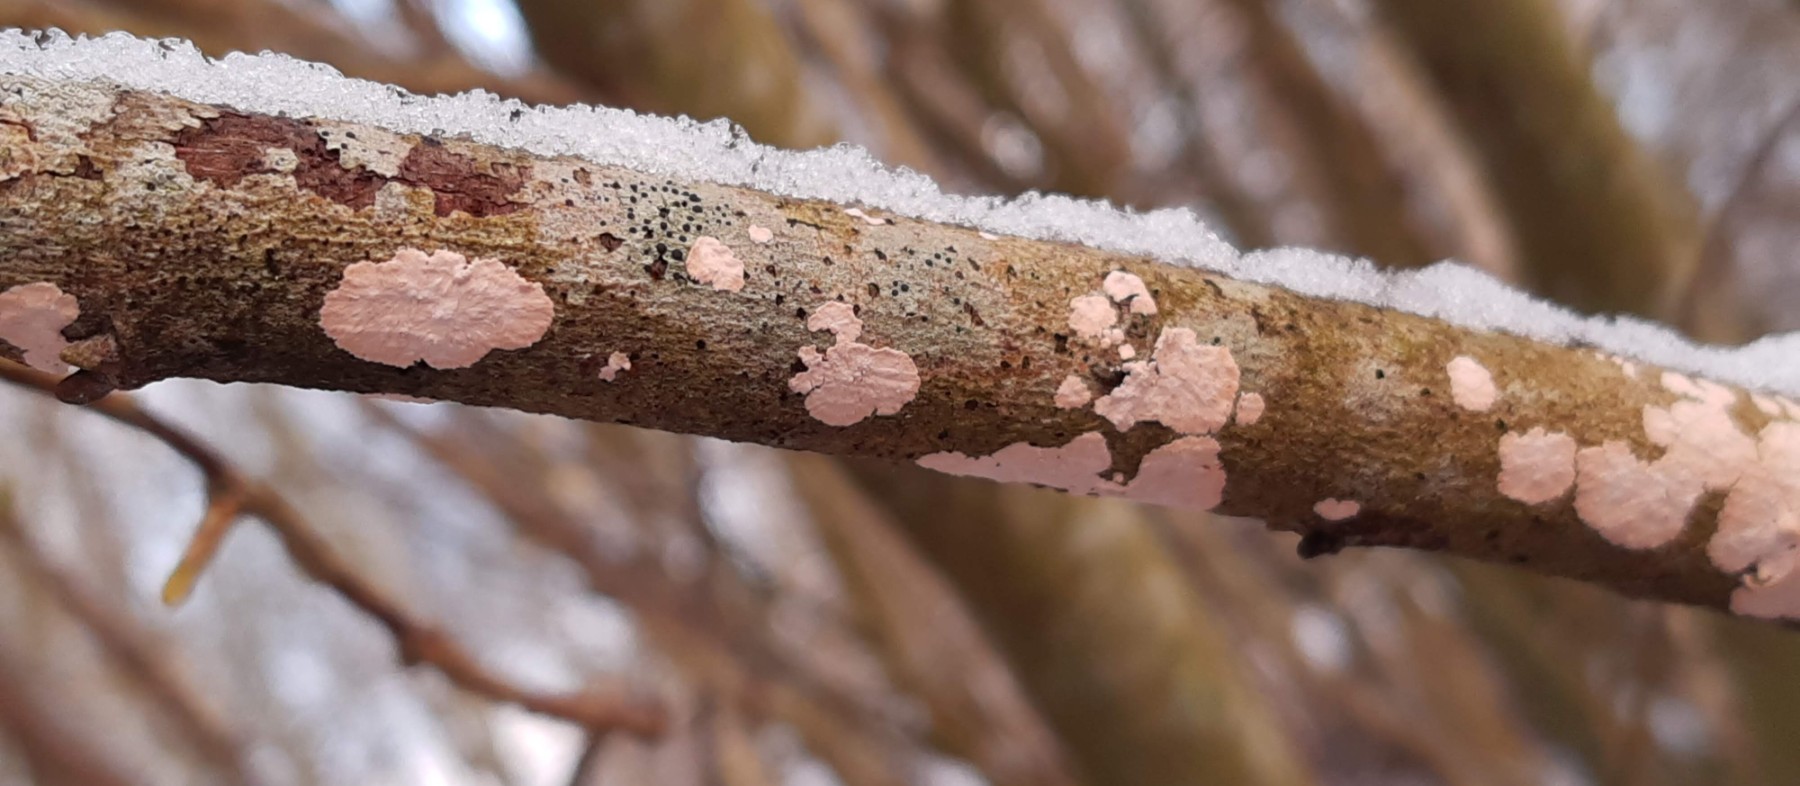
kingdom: Fungi
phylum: Basidiomycota
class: Agaricomycetes
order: Corticiales
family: Corticiaceae
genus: Corticium
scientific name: Corticium roseum
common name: rosa barkskind
